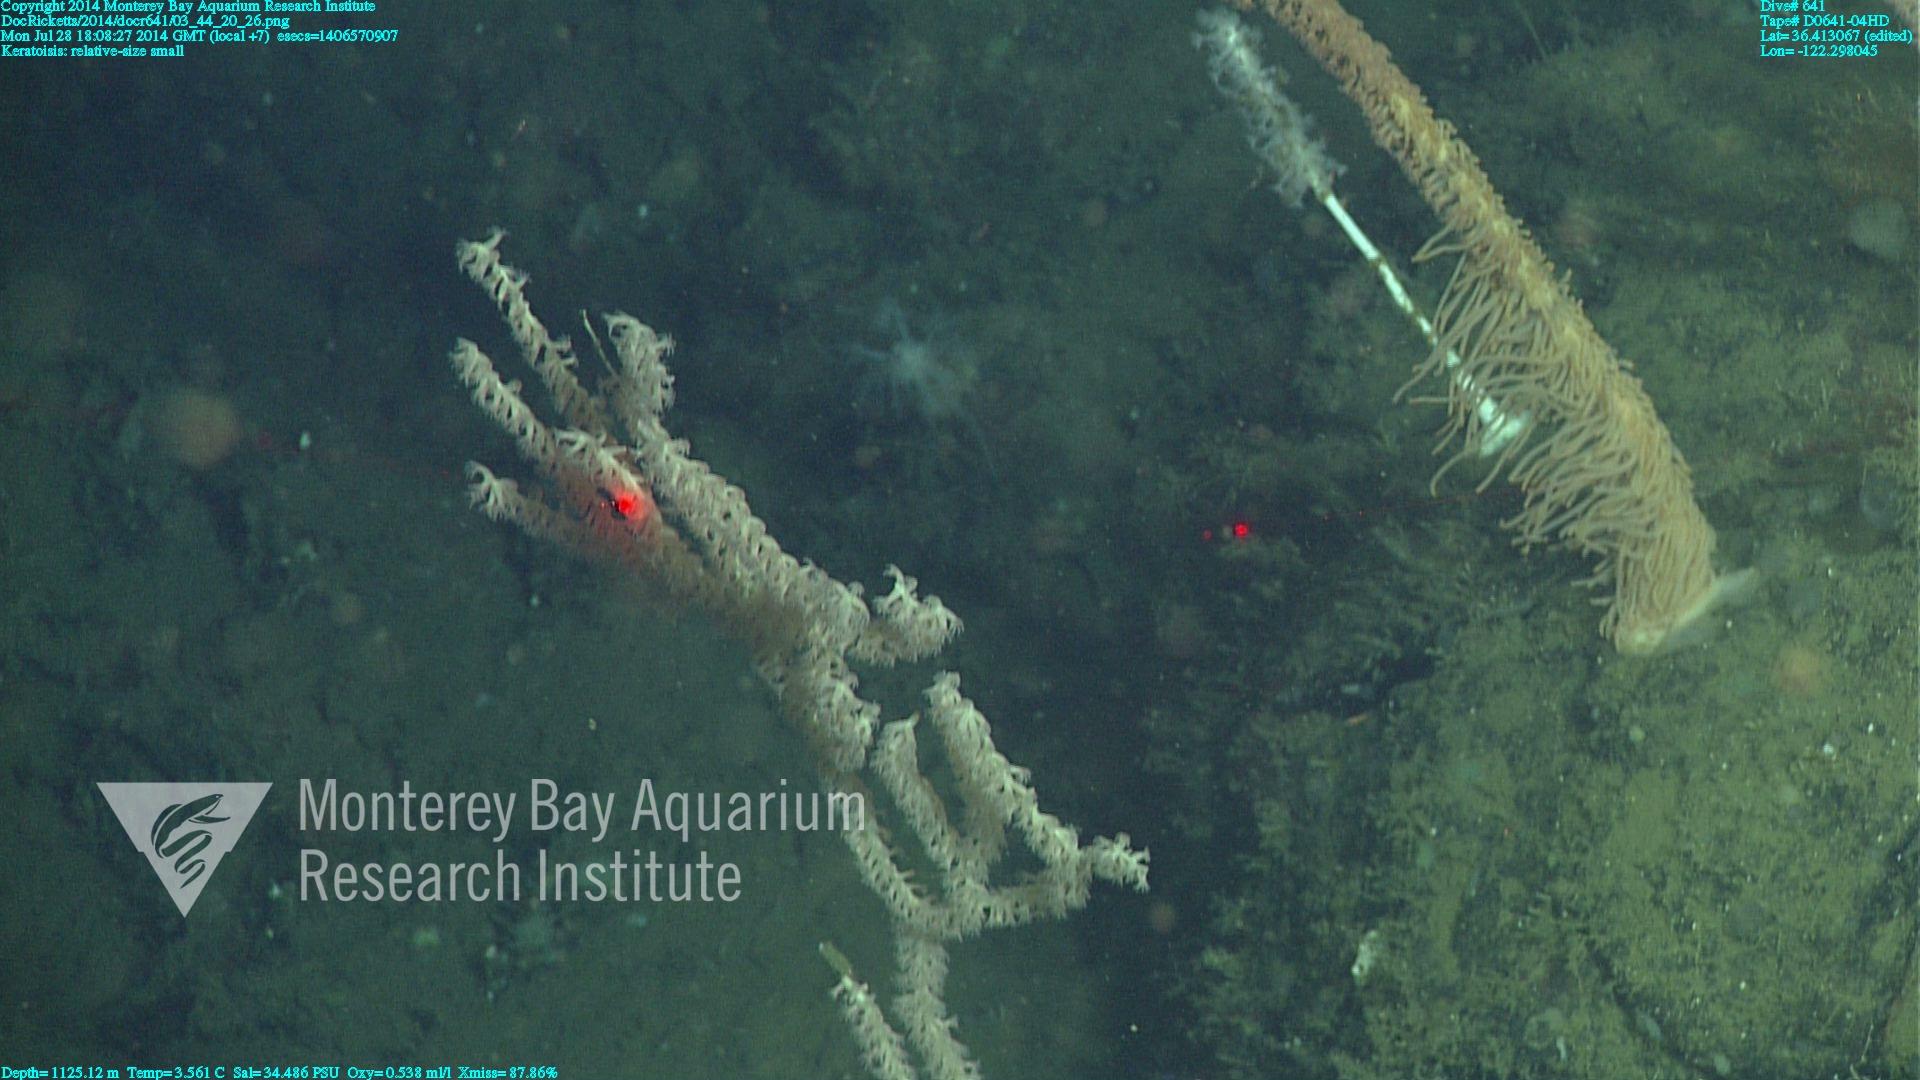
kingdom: Animalia
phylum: Cnidaria
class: Anthozoa
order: Scleralcyonacea
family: Keratoisididae
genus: Keratoisis
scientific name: Keratoisis
